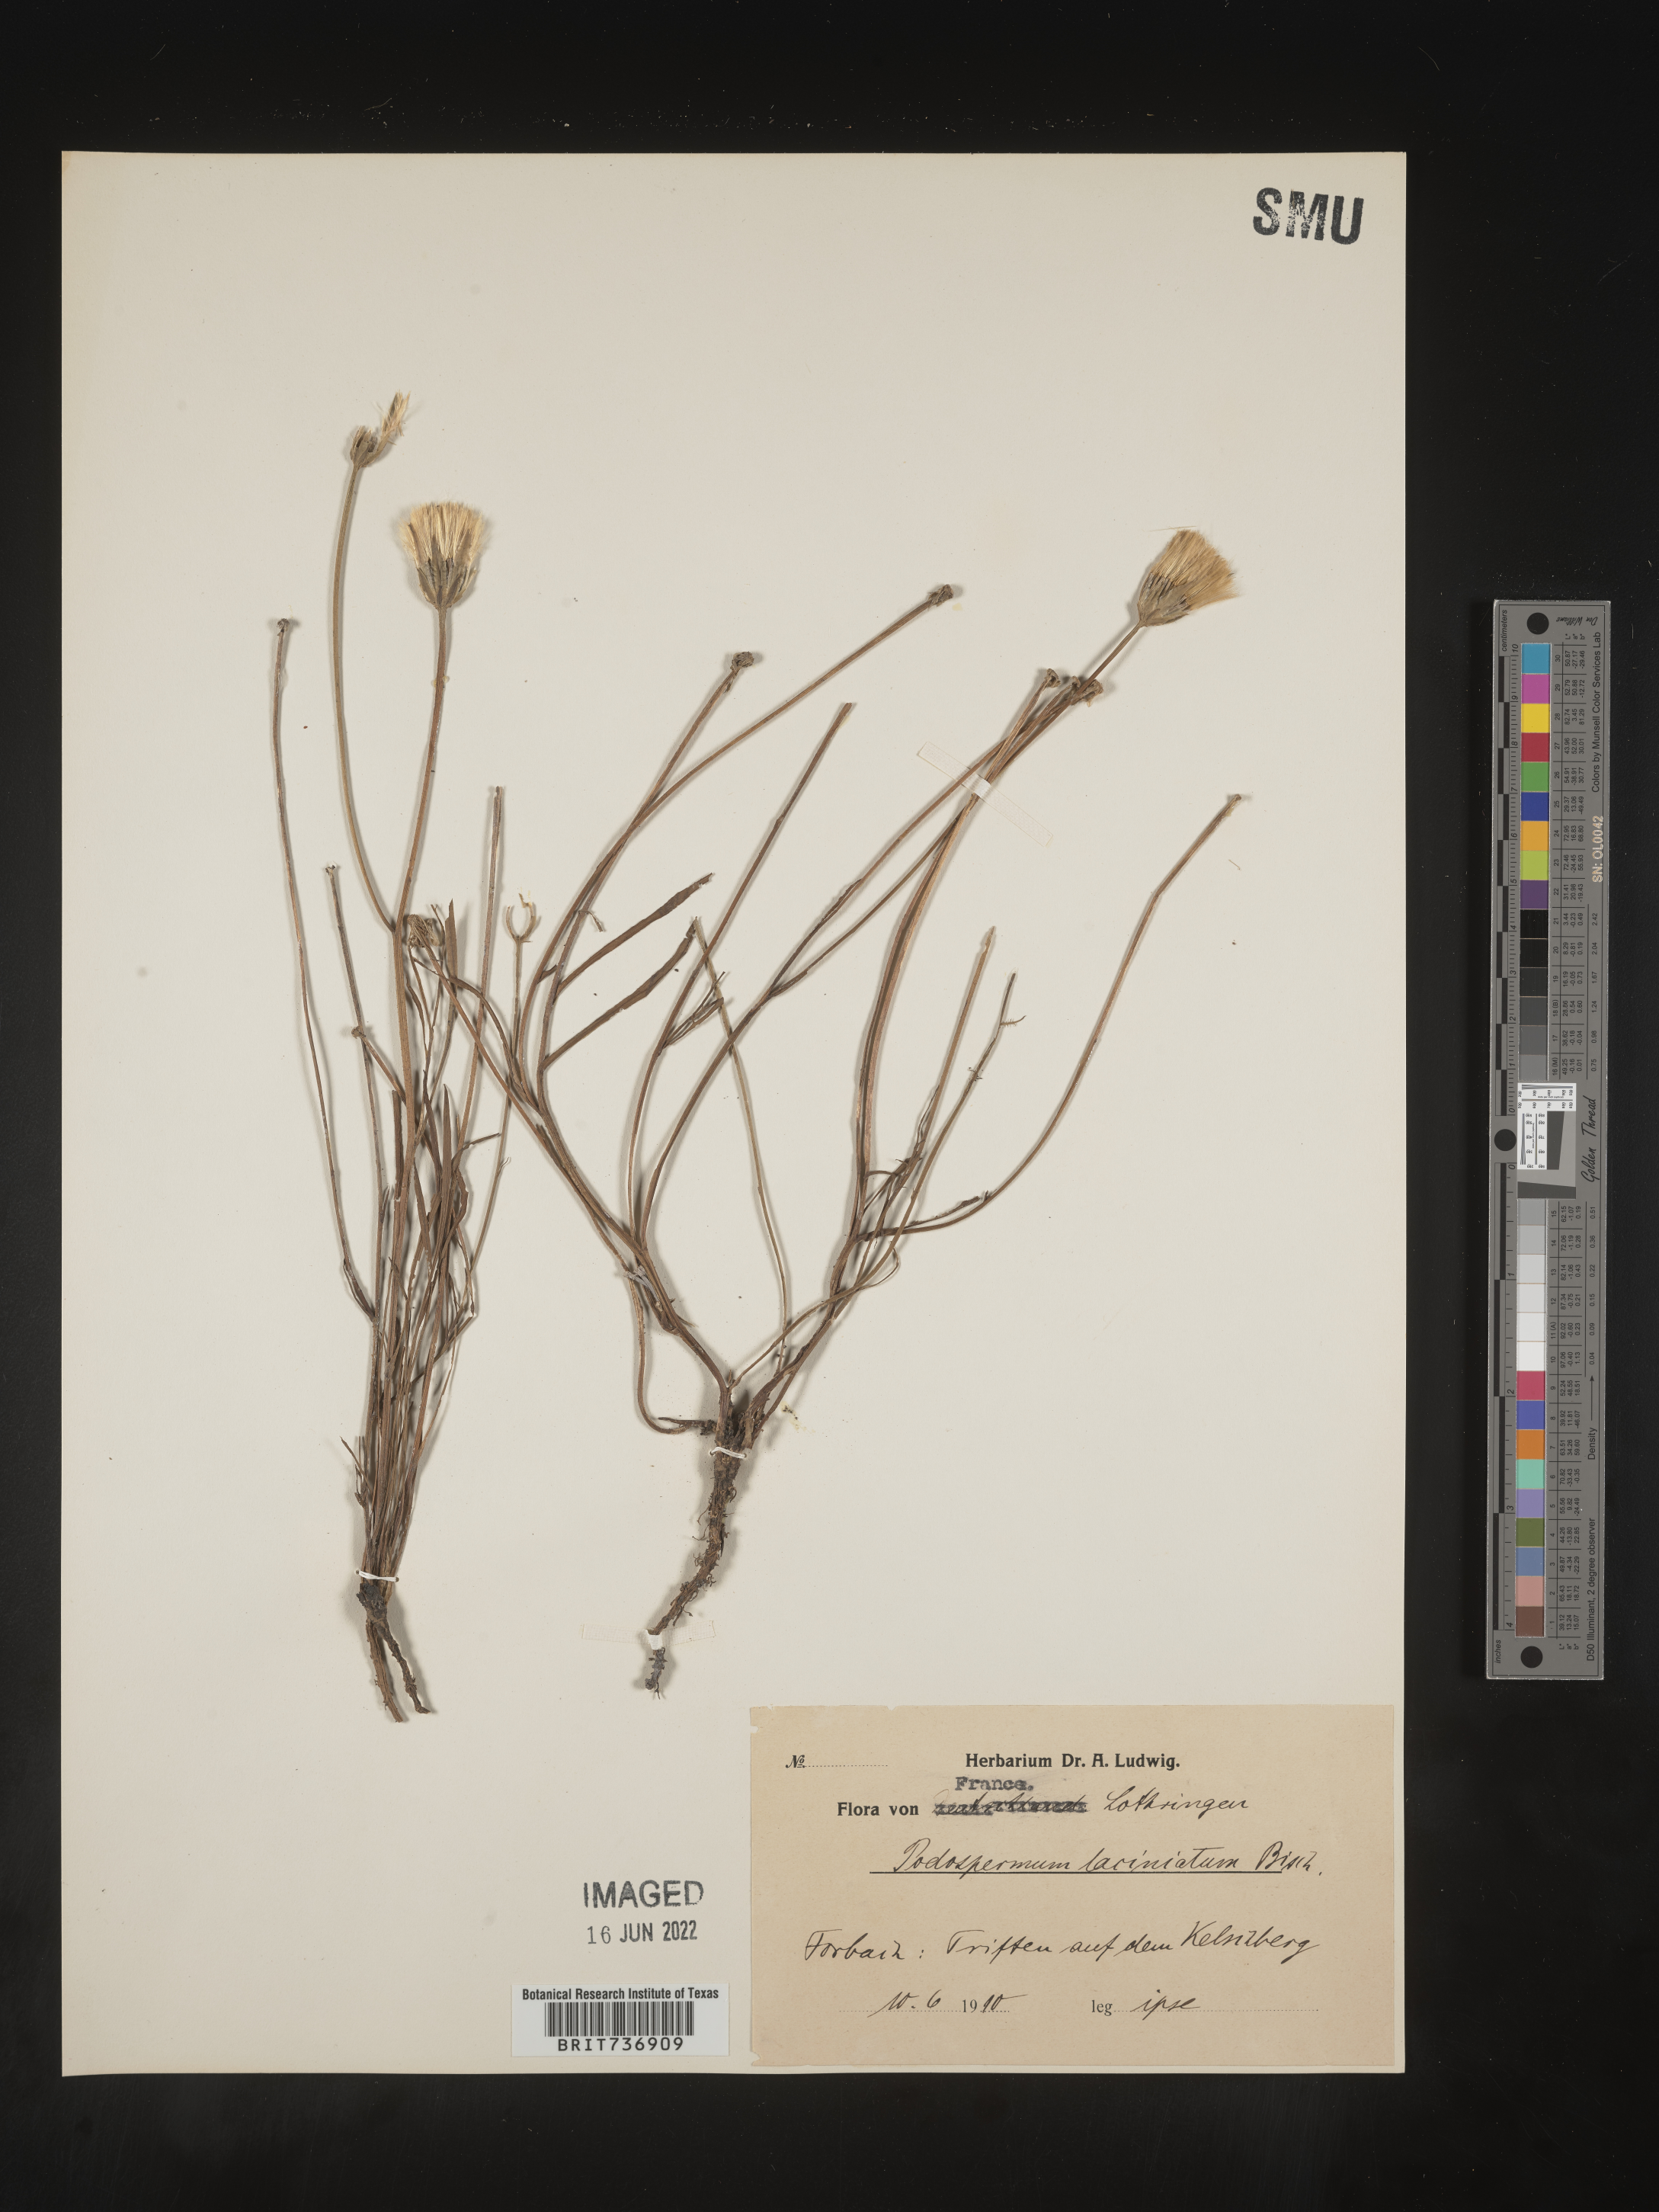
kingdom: Plantae
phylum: Tracheophyta
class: Magnoliopsida
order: Asterales
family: Asteraceae
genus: Scorzonera
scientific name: Scorzonera
